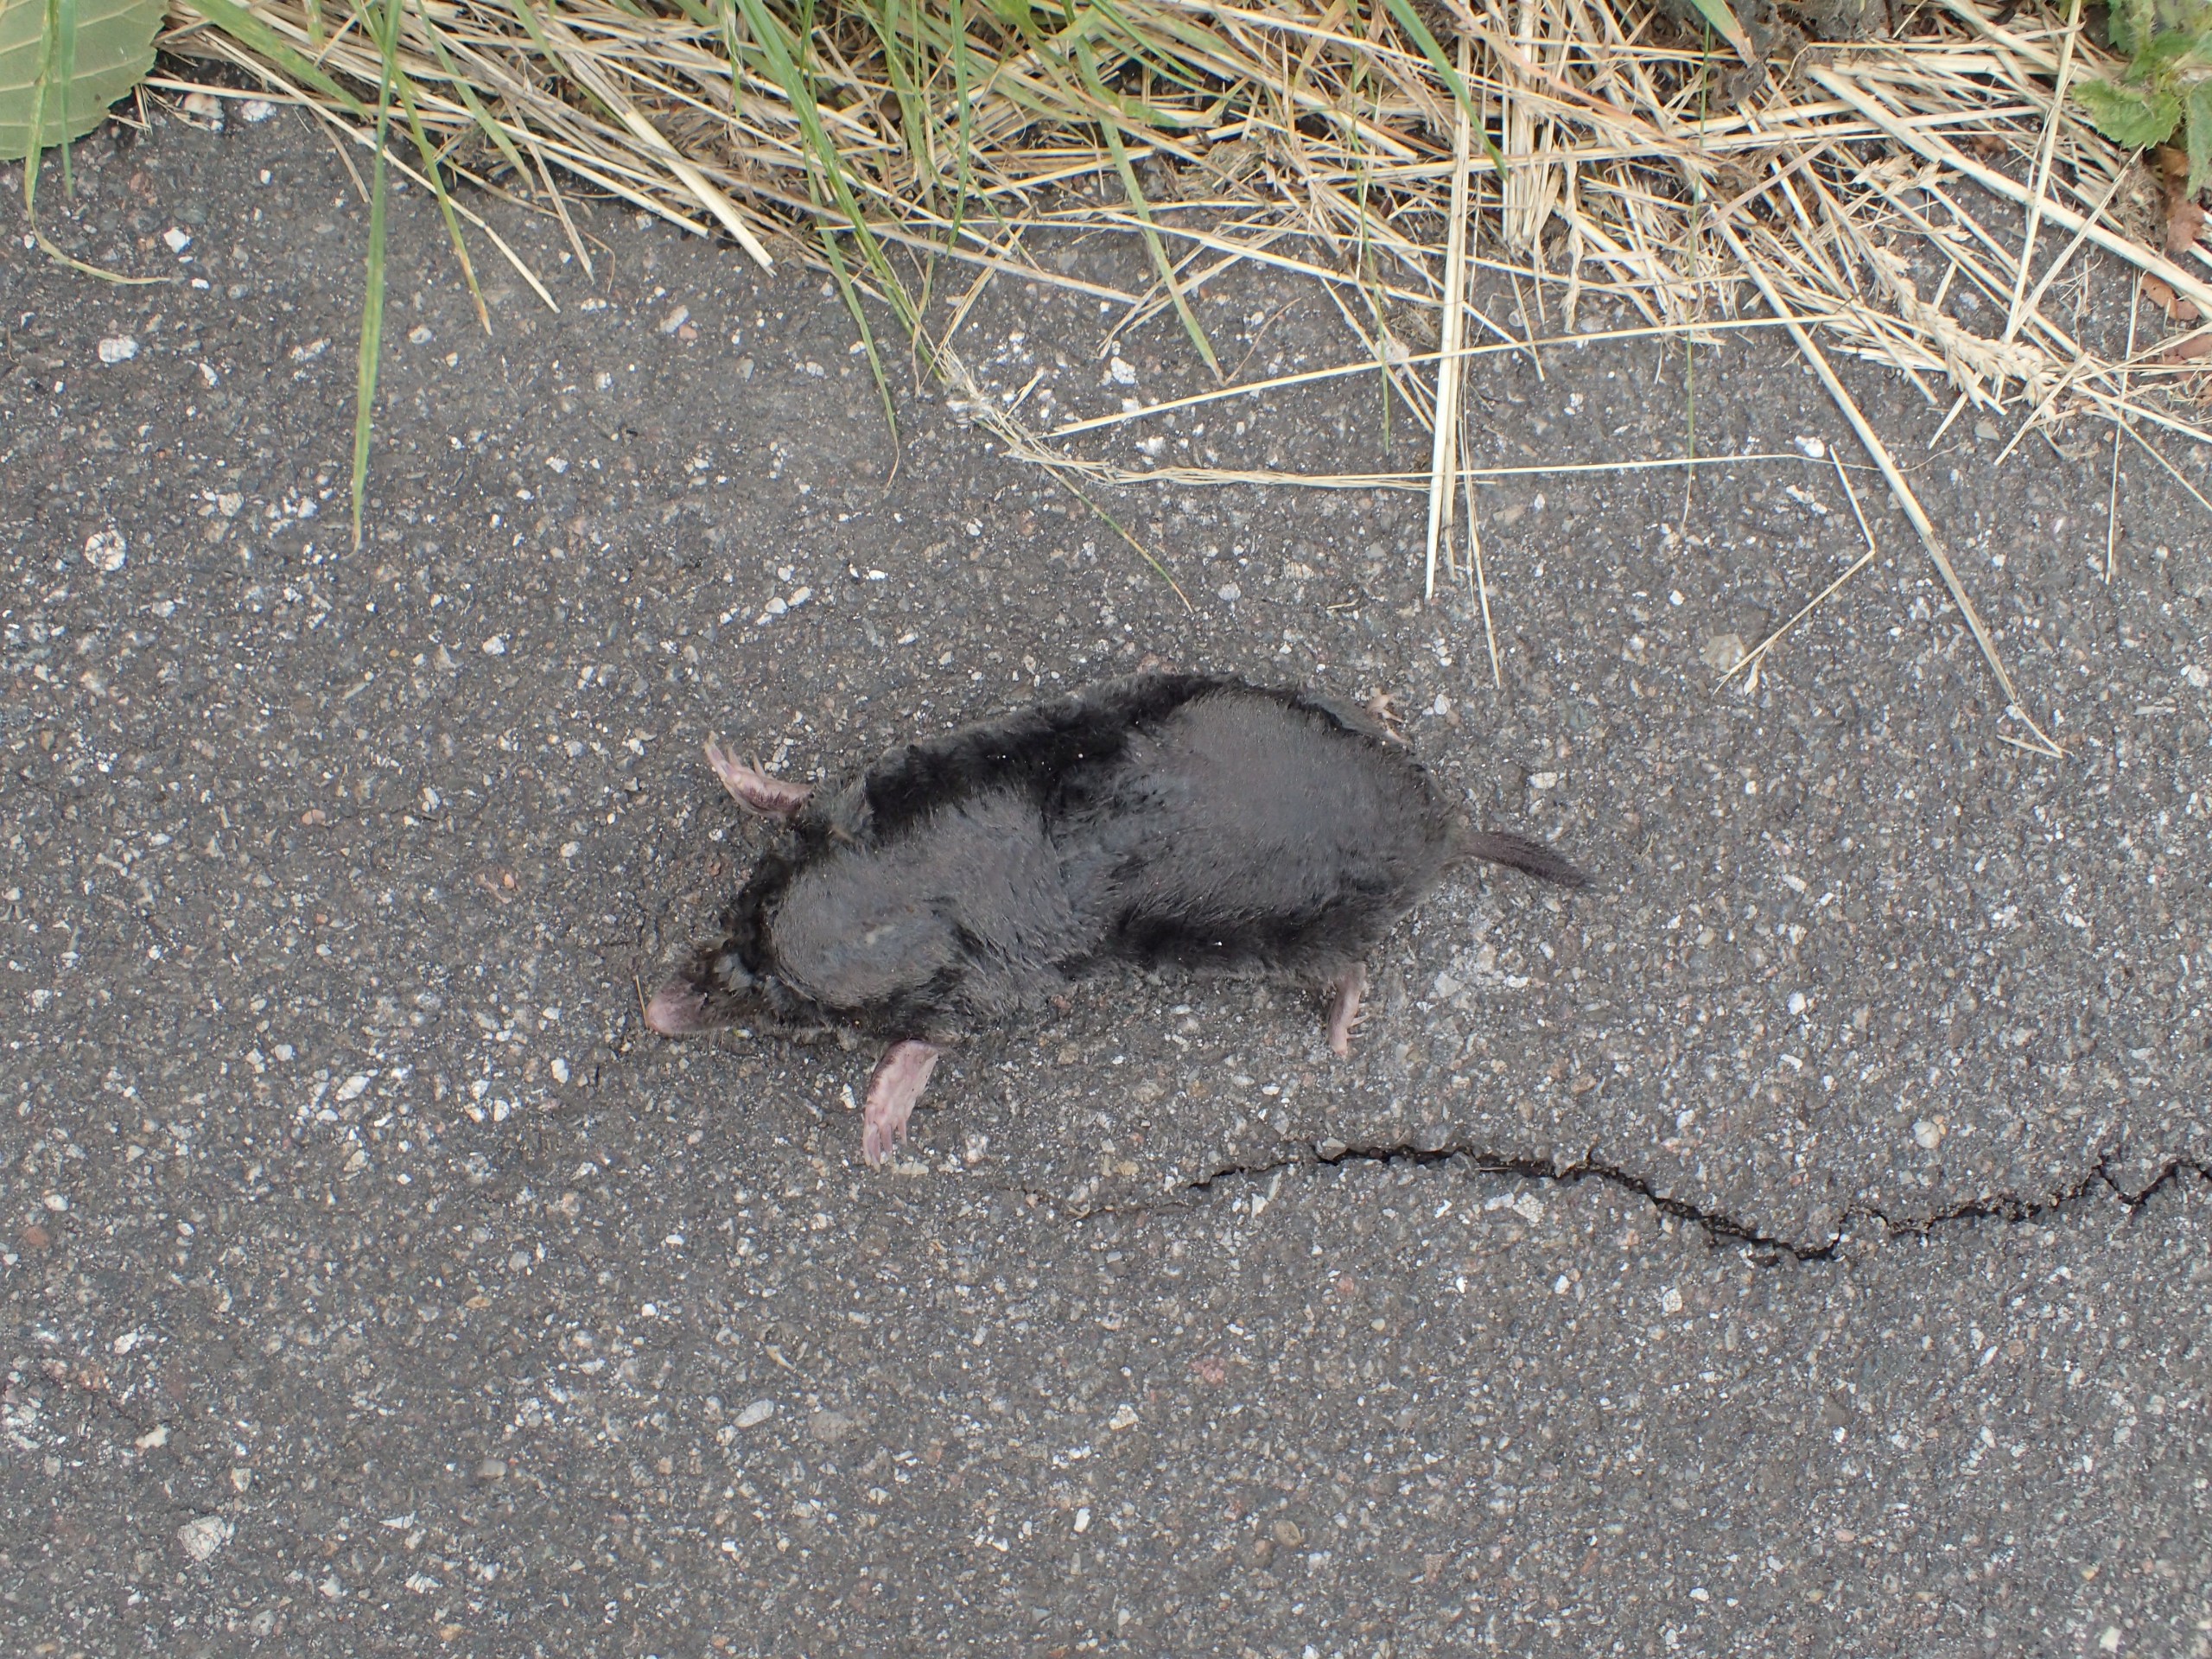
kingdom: Animalia
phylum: Chordata
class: Mammalia
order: Soricomorpha
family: Talpidae
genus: Talpa
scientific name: Talpa europaea
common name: Muldvarp
